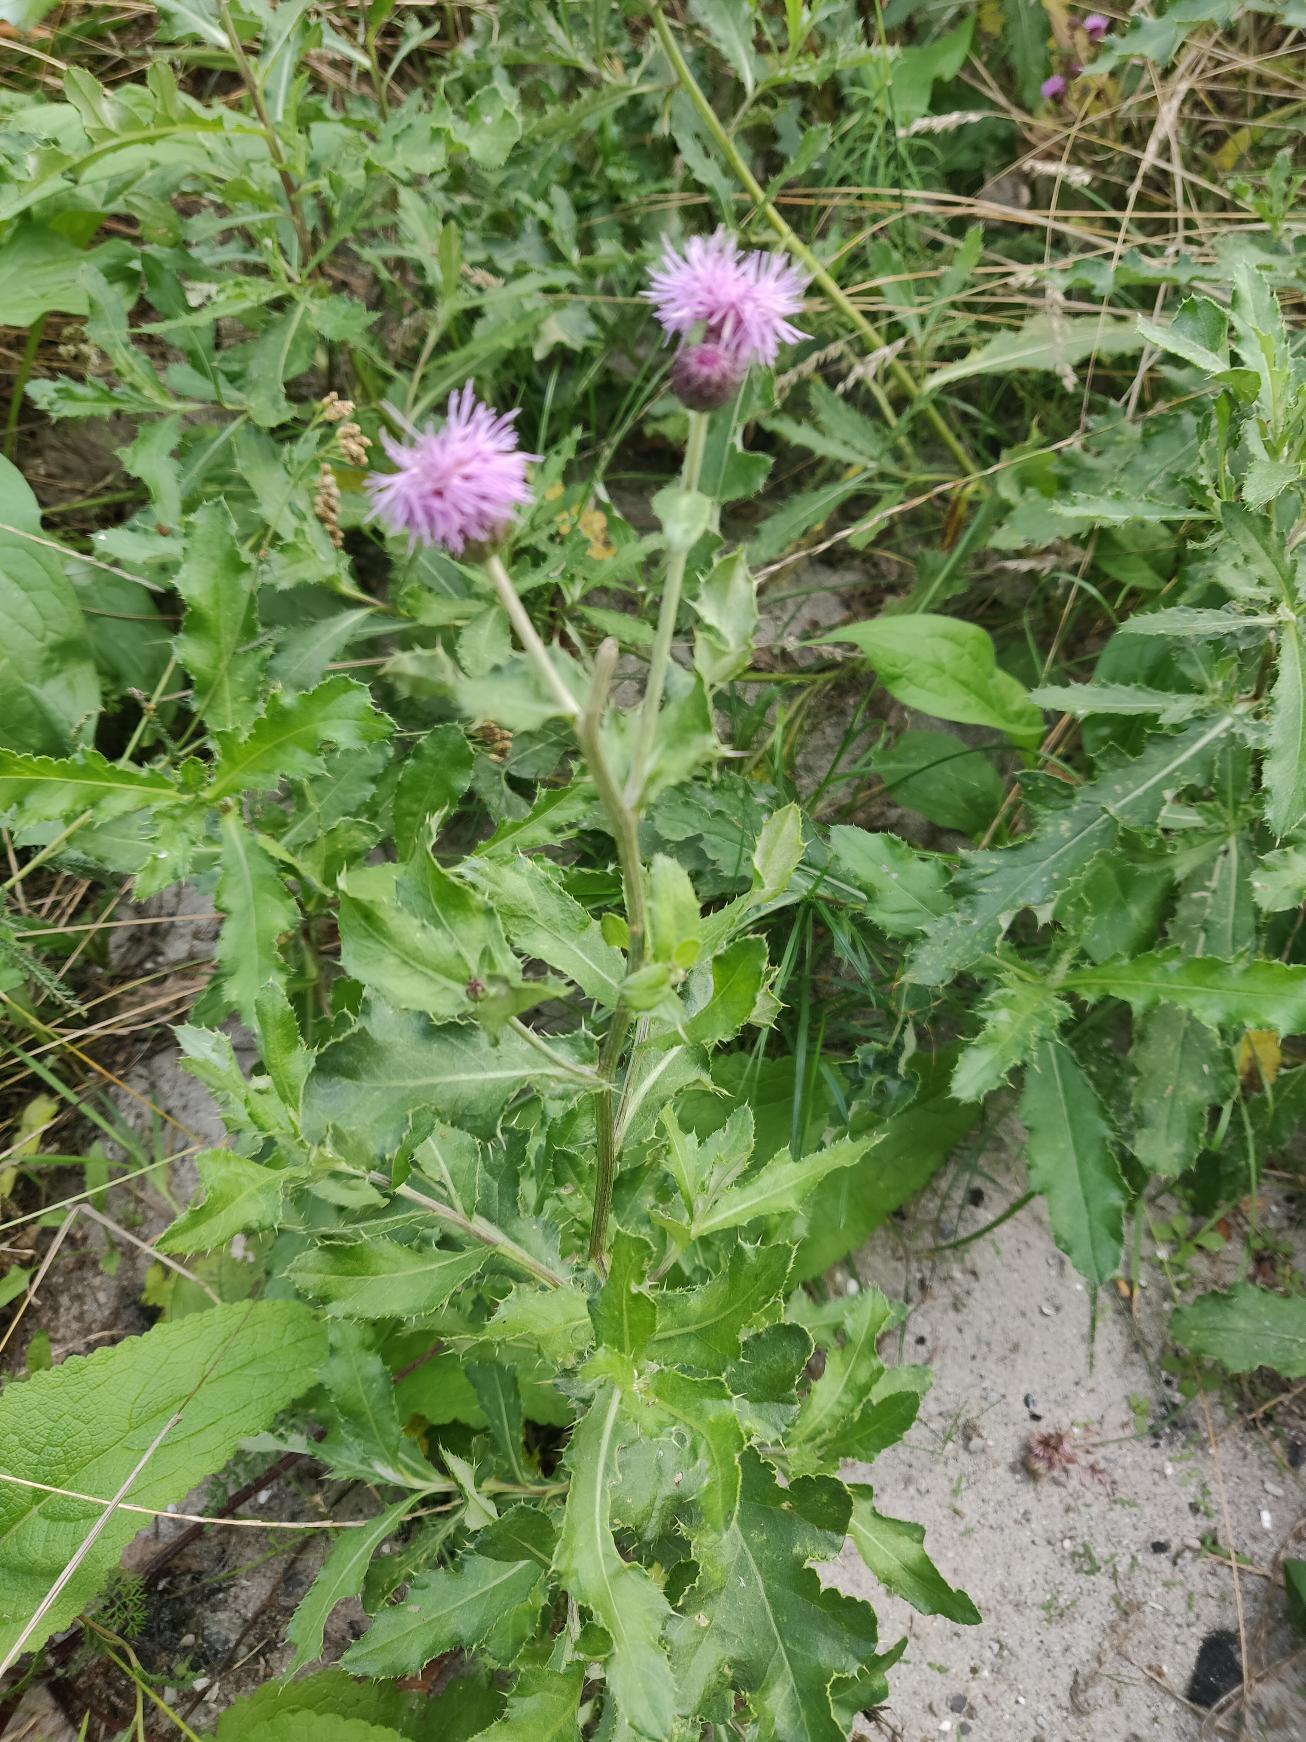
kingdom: Plantae
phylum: Tracheophyta
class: Magnoliopsida
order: Asterales
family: Asteraceae
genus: Cirsium
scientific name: Cirsium arvense
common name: Ager-tidsel
